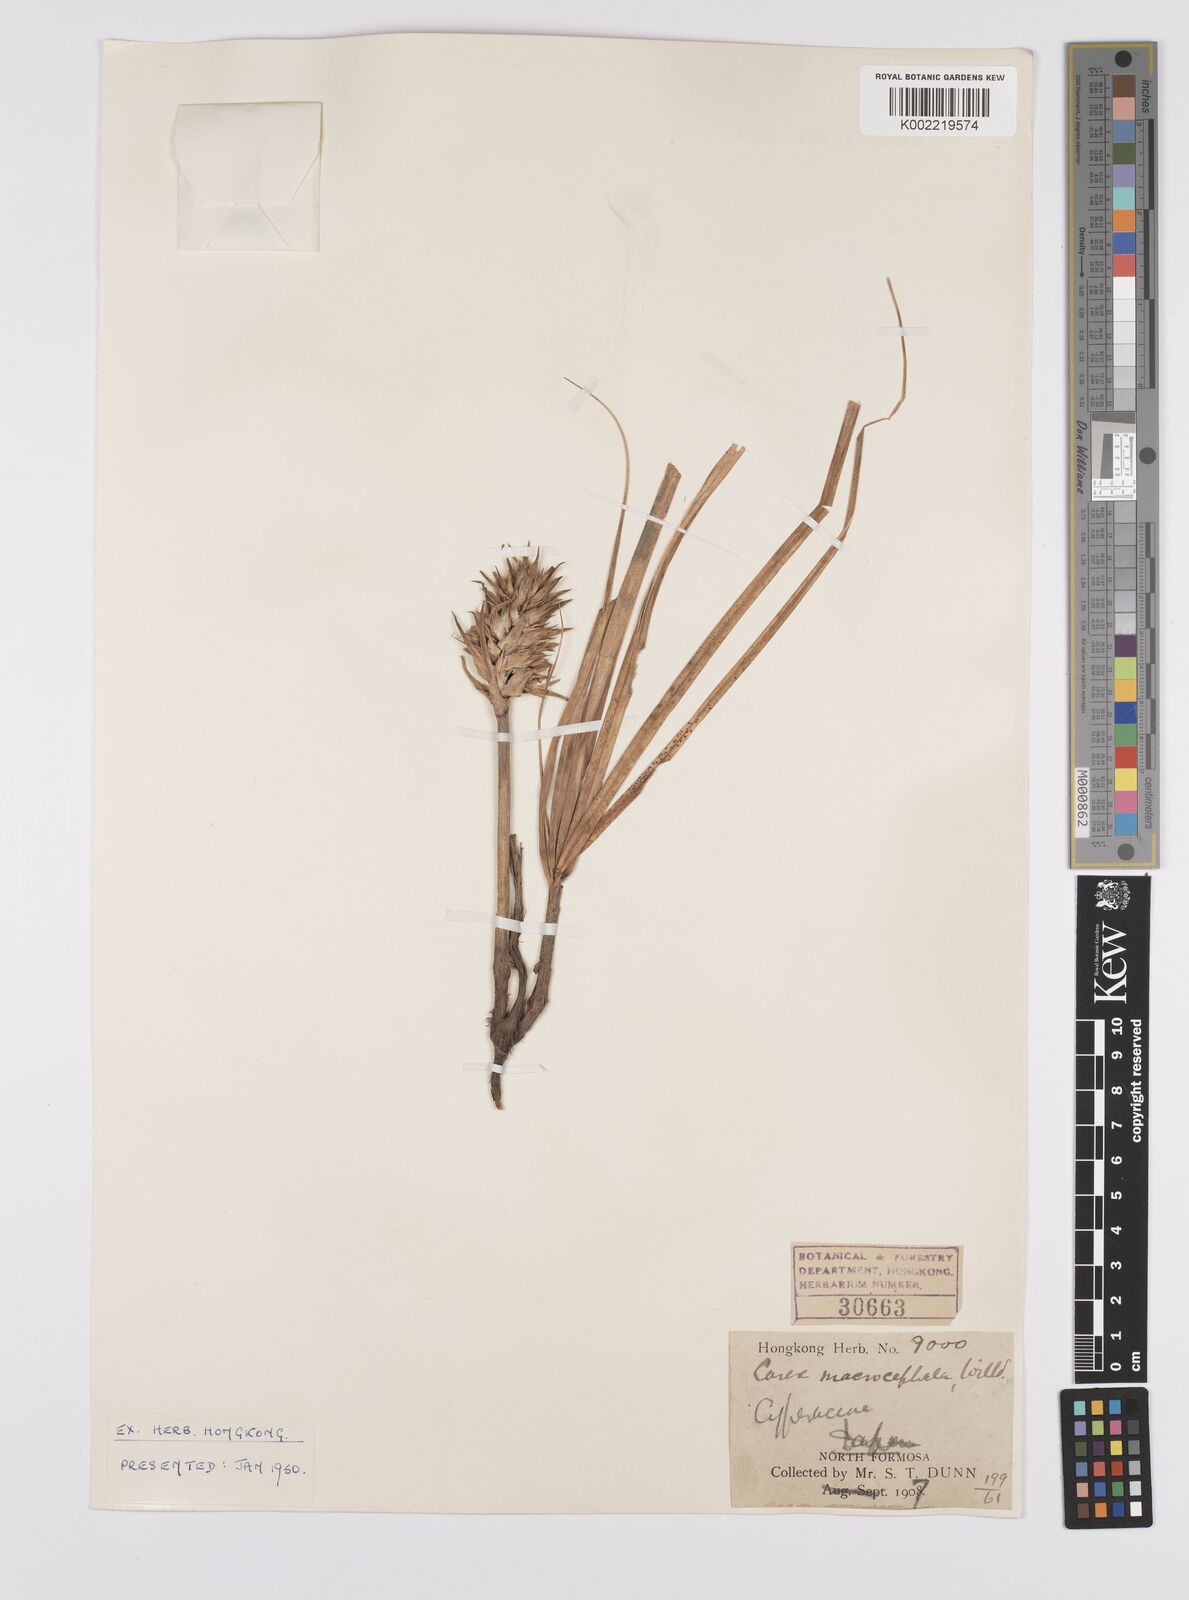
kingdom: Plantae
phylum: Tracheophyta
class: Liliopsida
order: Poales
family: Cyperaceae
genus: Carex
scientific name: Carex macrocephala
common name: Large-head sedge
